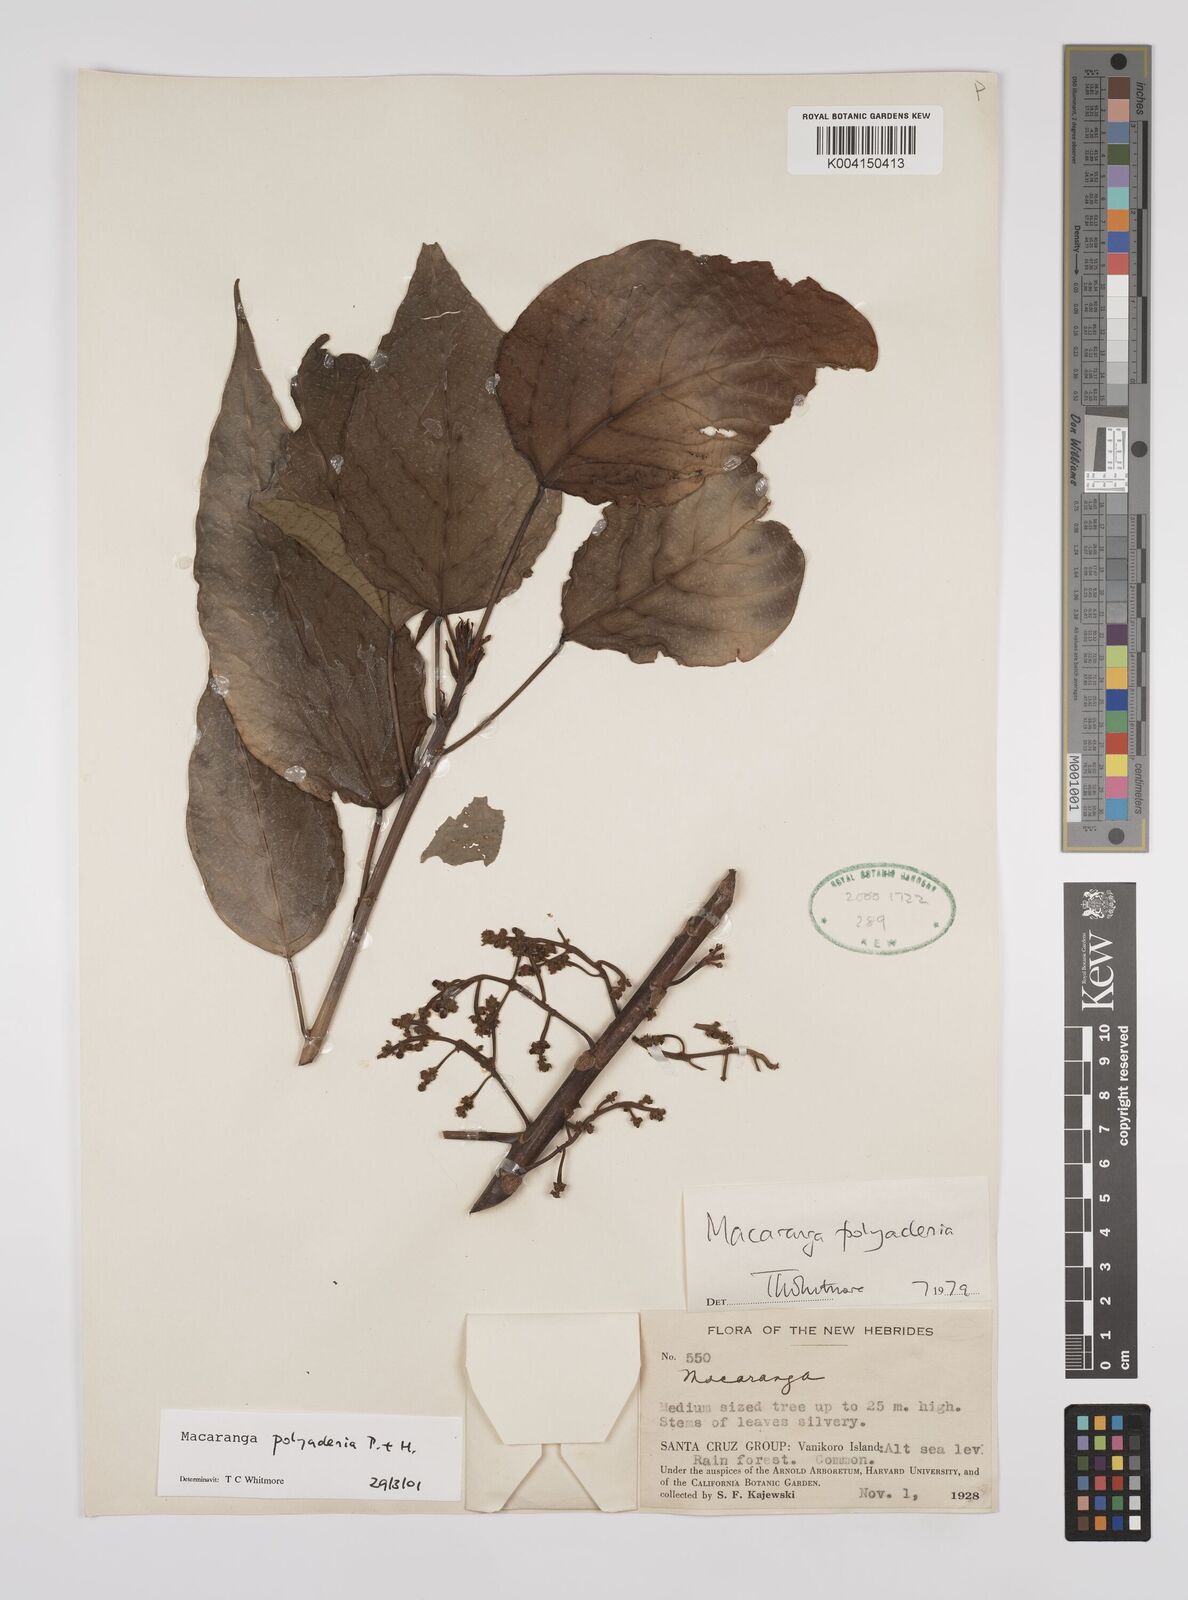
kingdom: Plantae
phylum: Tracheophyta
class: Magnoliopsida
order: Malpighiales
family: Euphorbiaceae
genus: Macaranga
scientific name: Macaranga polyadenia
